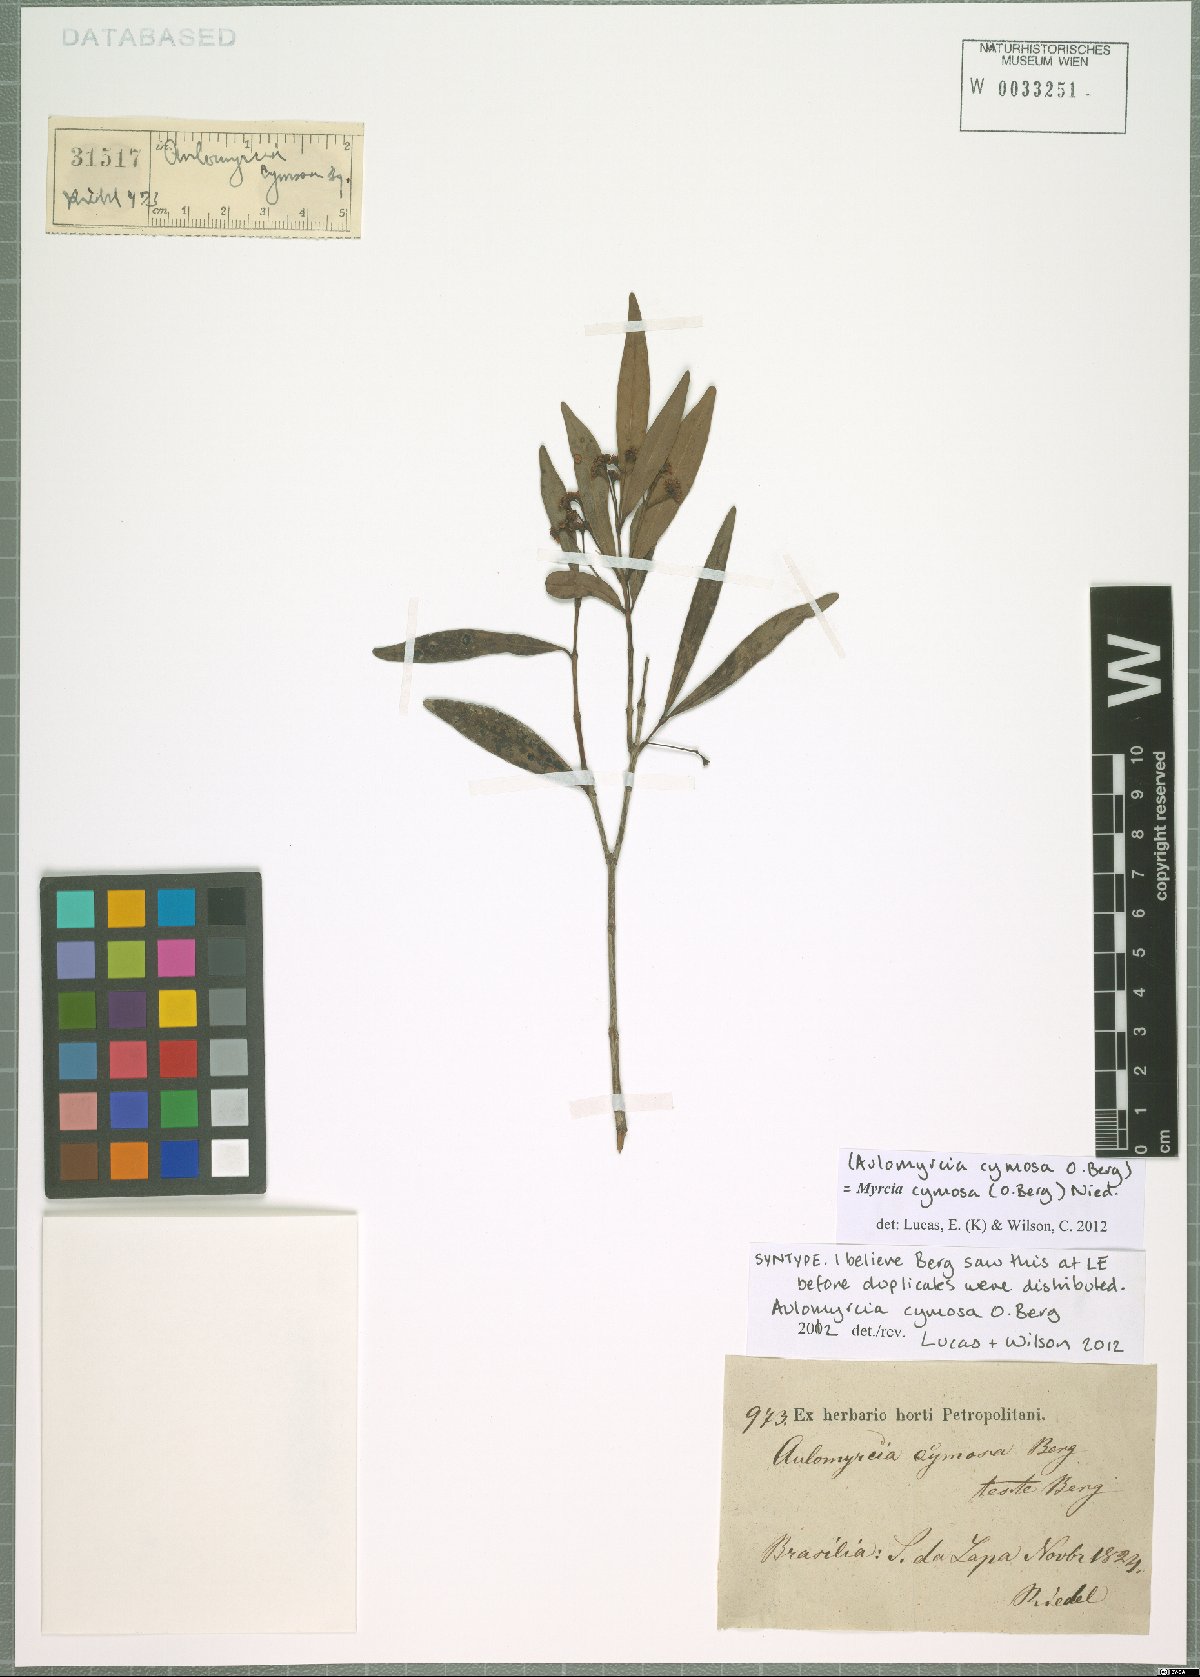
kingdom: Plantae
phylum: Tracheophyta
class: Magnoliopsida
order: Myrtales
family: Myrtaceae
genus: Myrcia
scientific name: Myrcia cymosa
